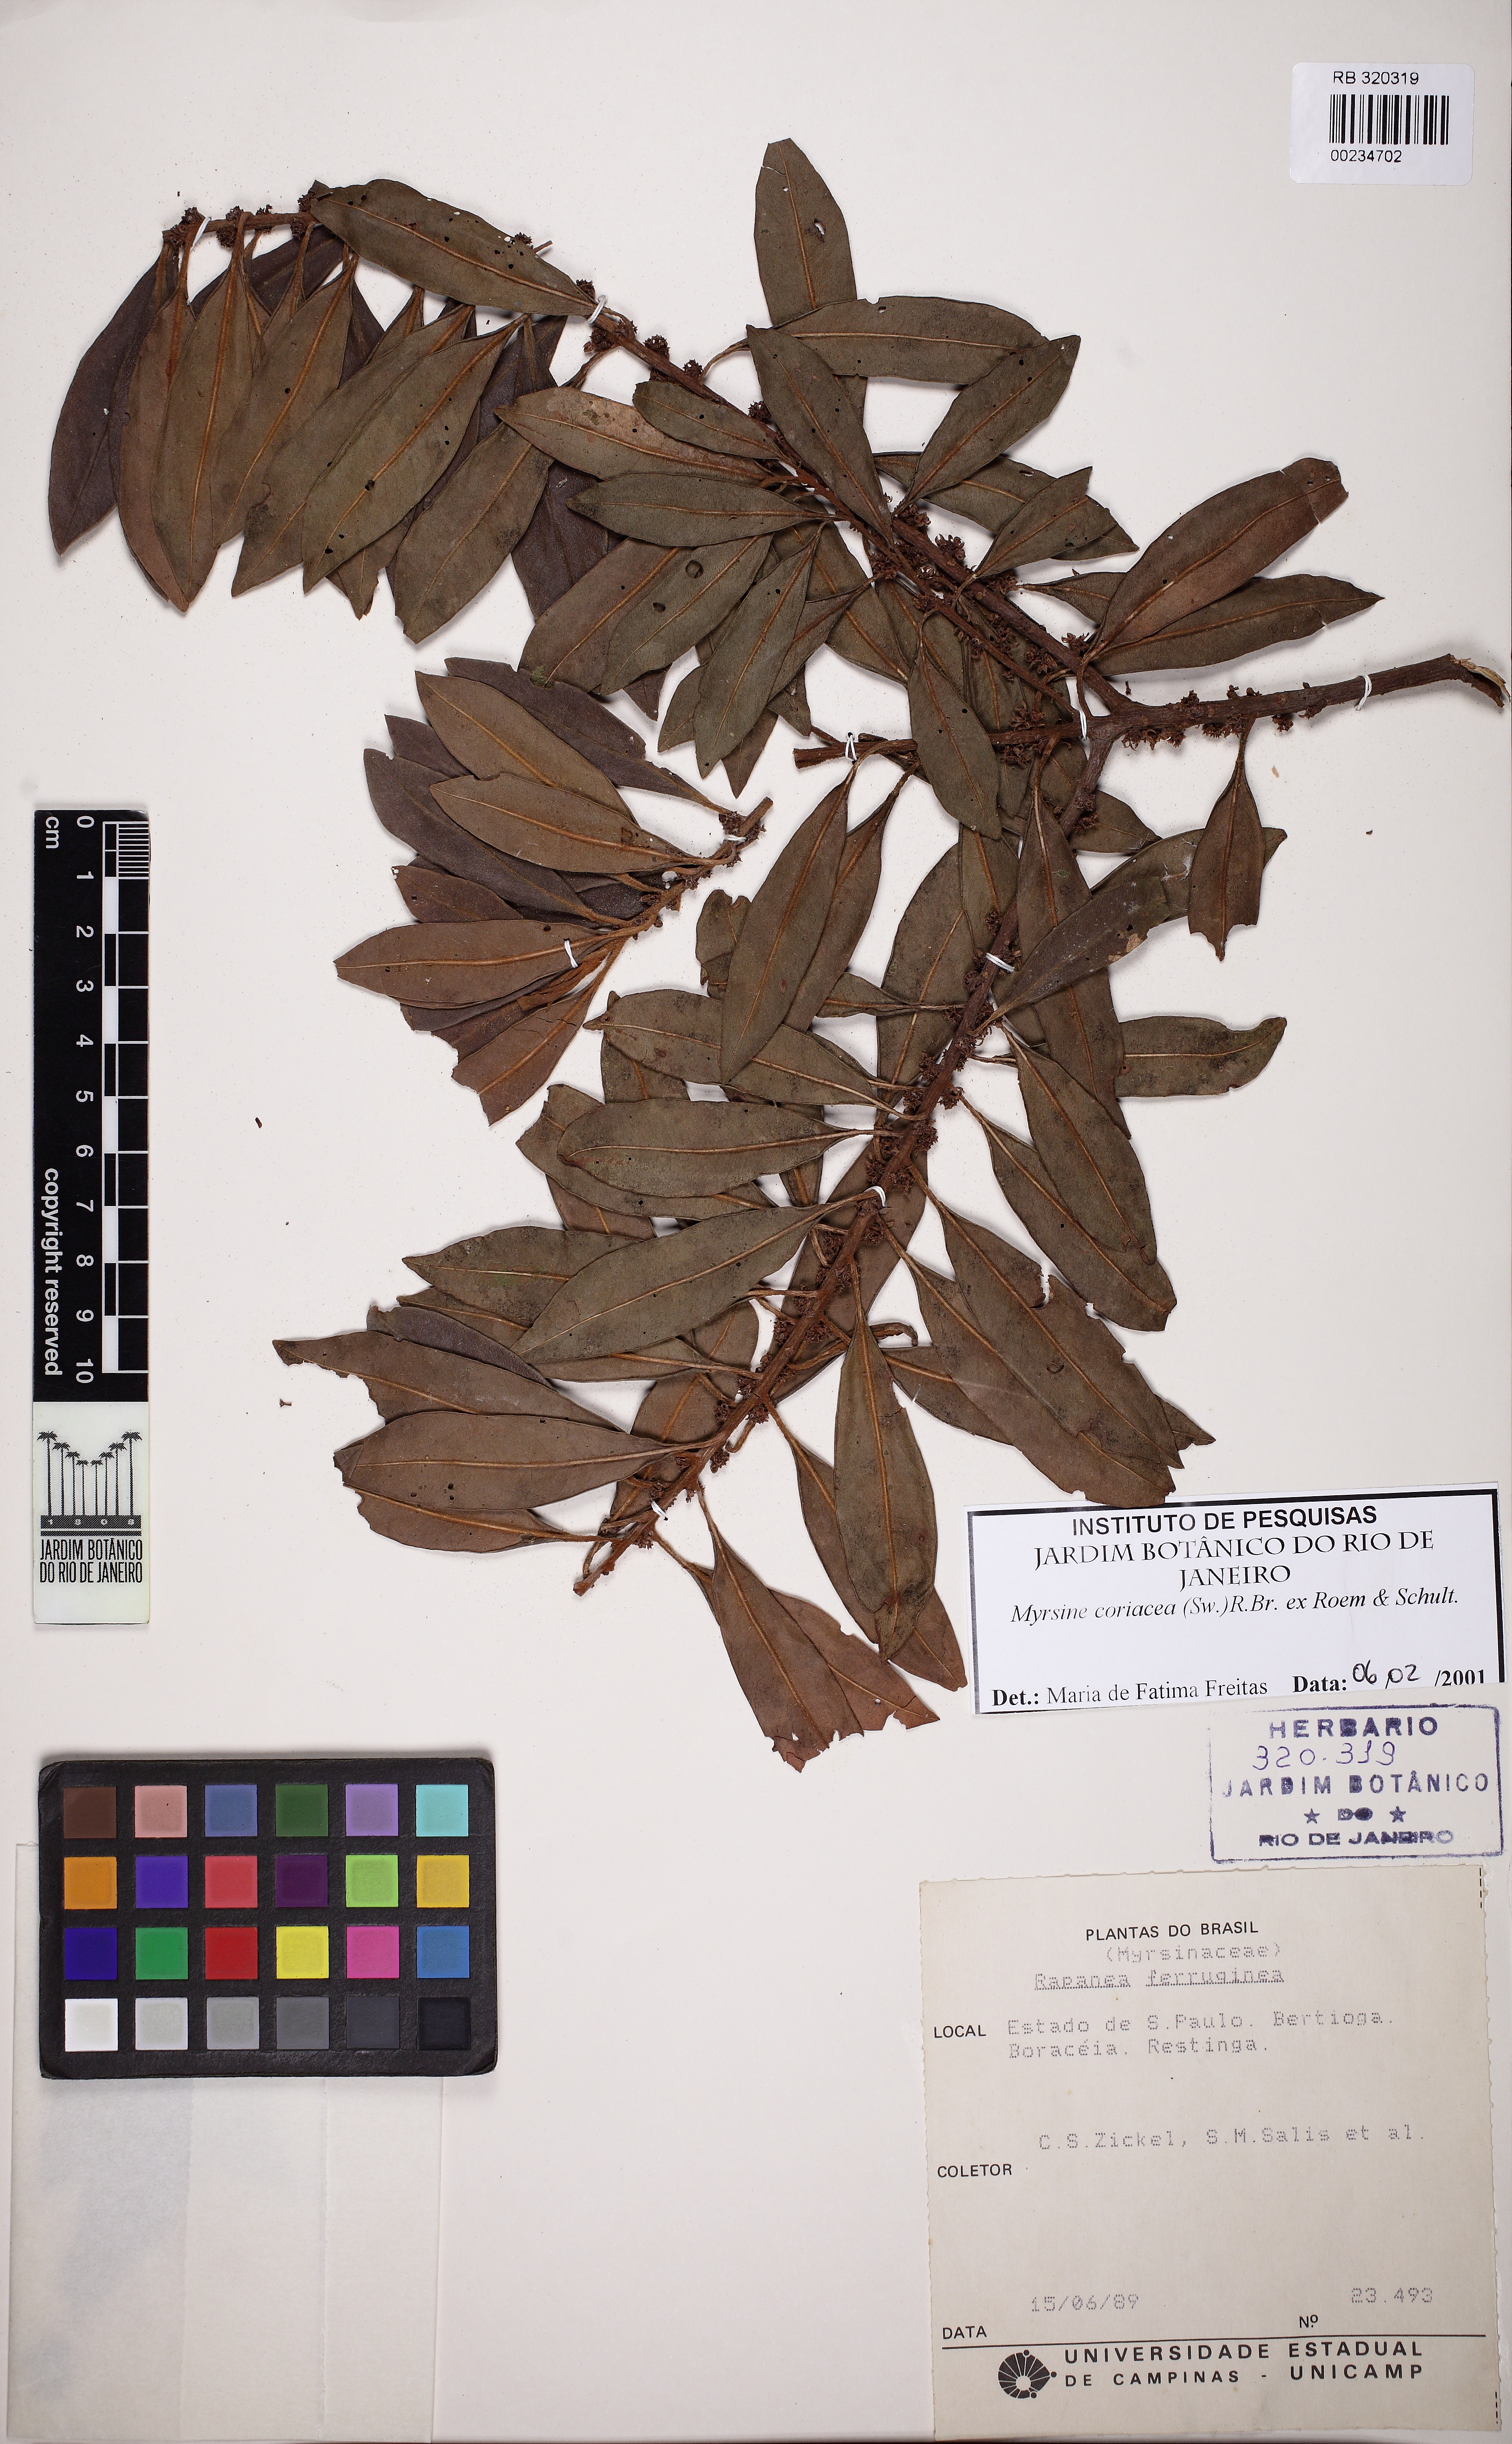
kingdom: Plantae
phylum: Tracheophyta
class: Magnoliopsida
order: Ericales
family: Primulaceae
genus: Myrsine
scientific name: Myrsine coriacea
